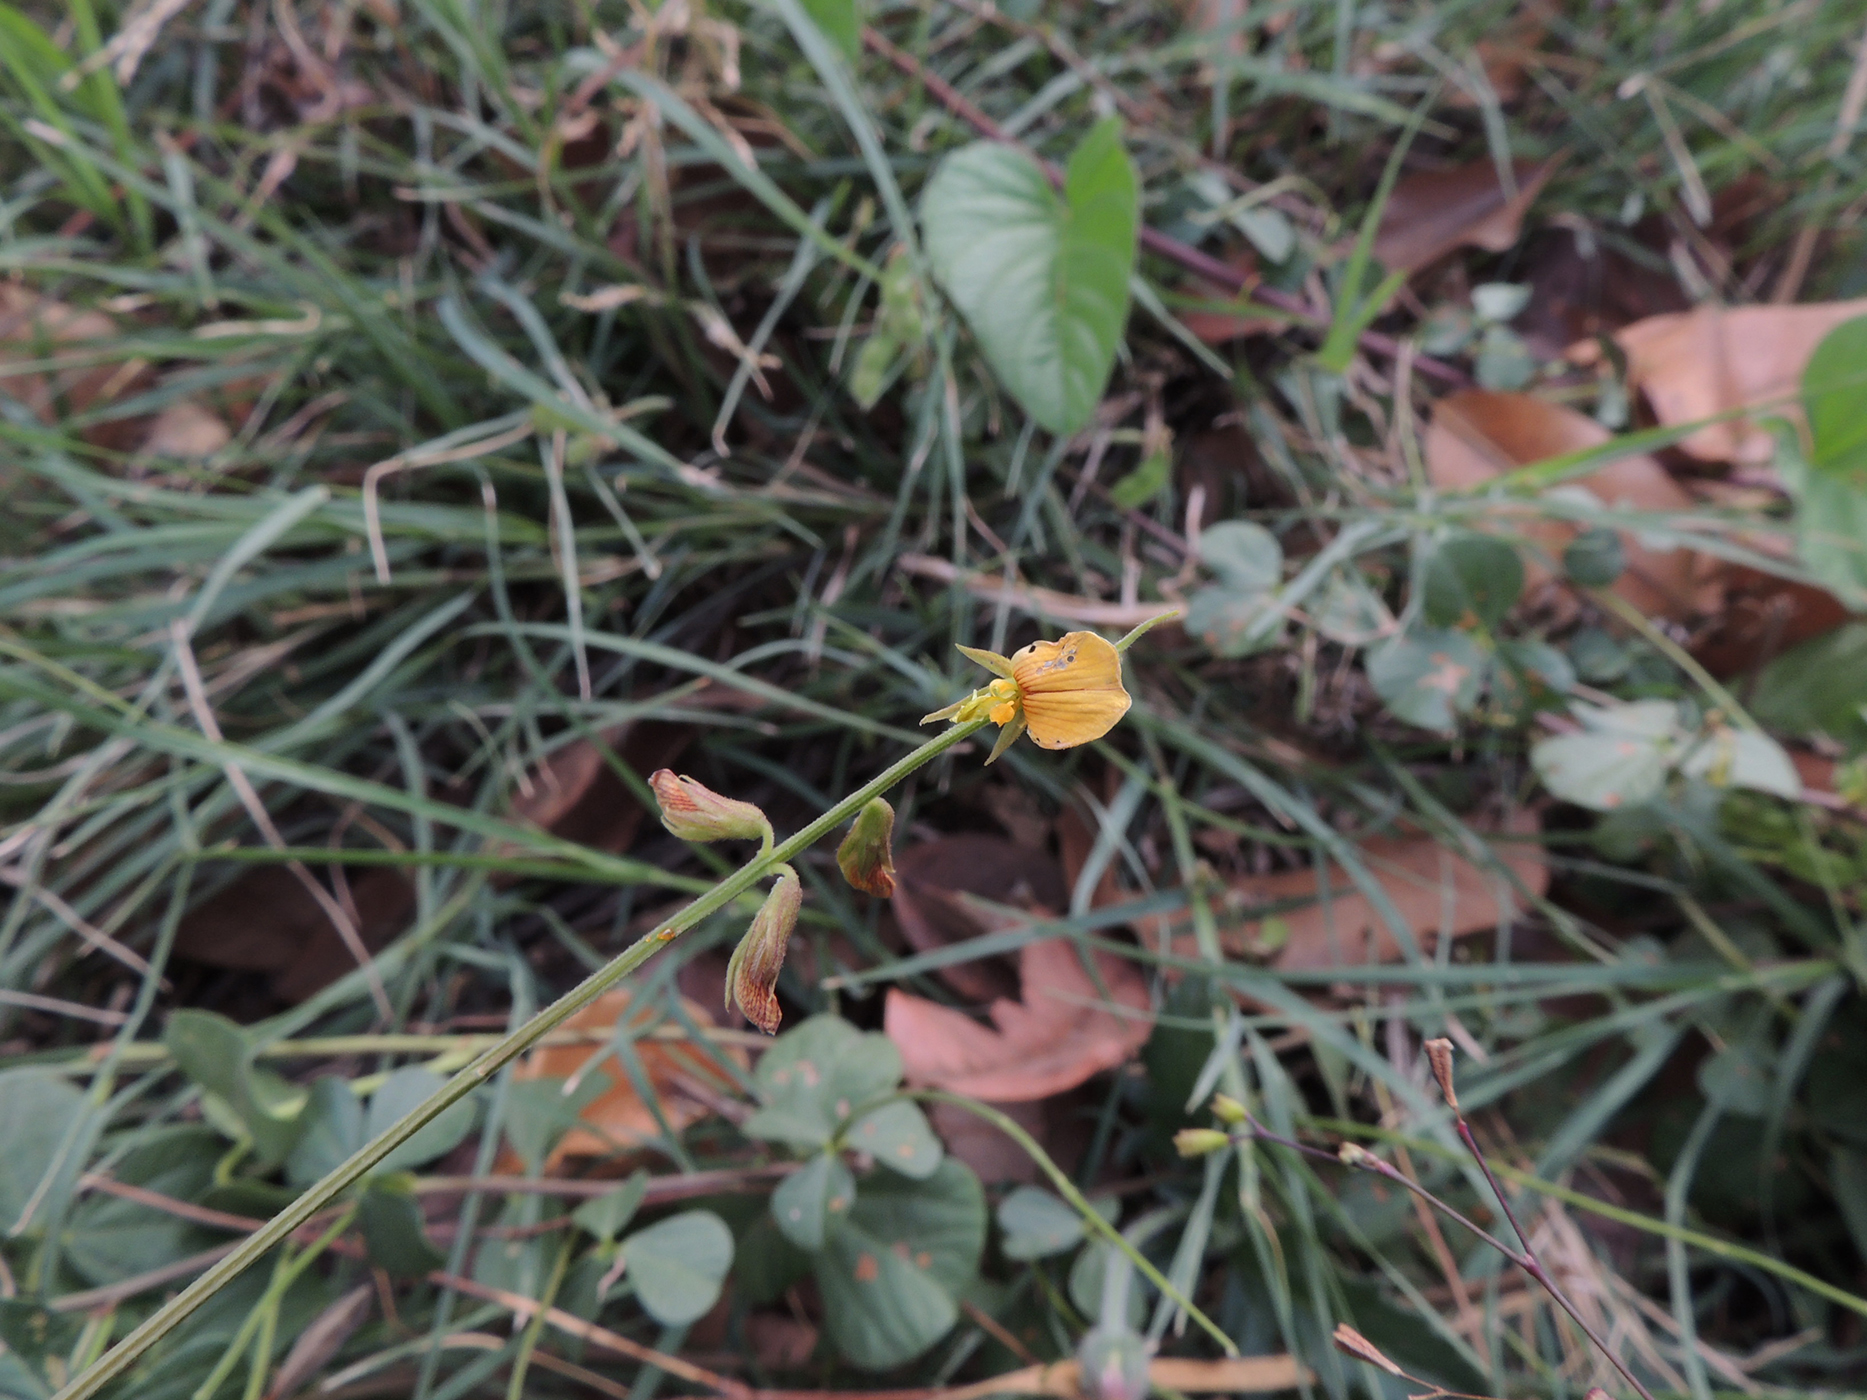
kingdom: Plantae
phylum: Tracheophyta
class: Magnoliopsida
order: Fabales
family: Fabaceae
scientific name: Fabaceae
